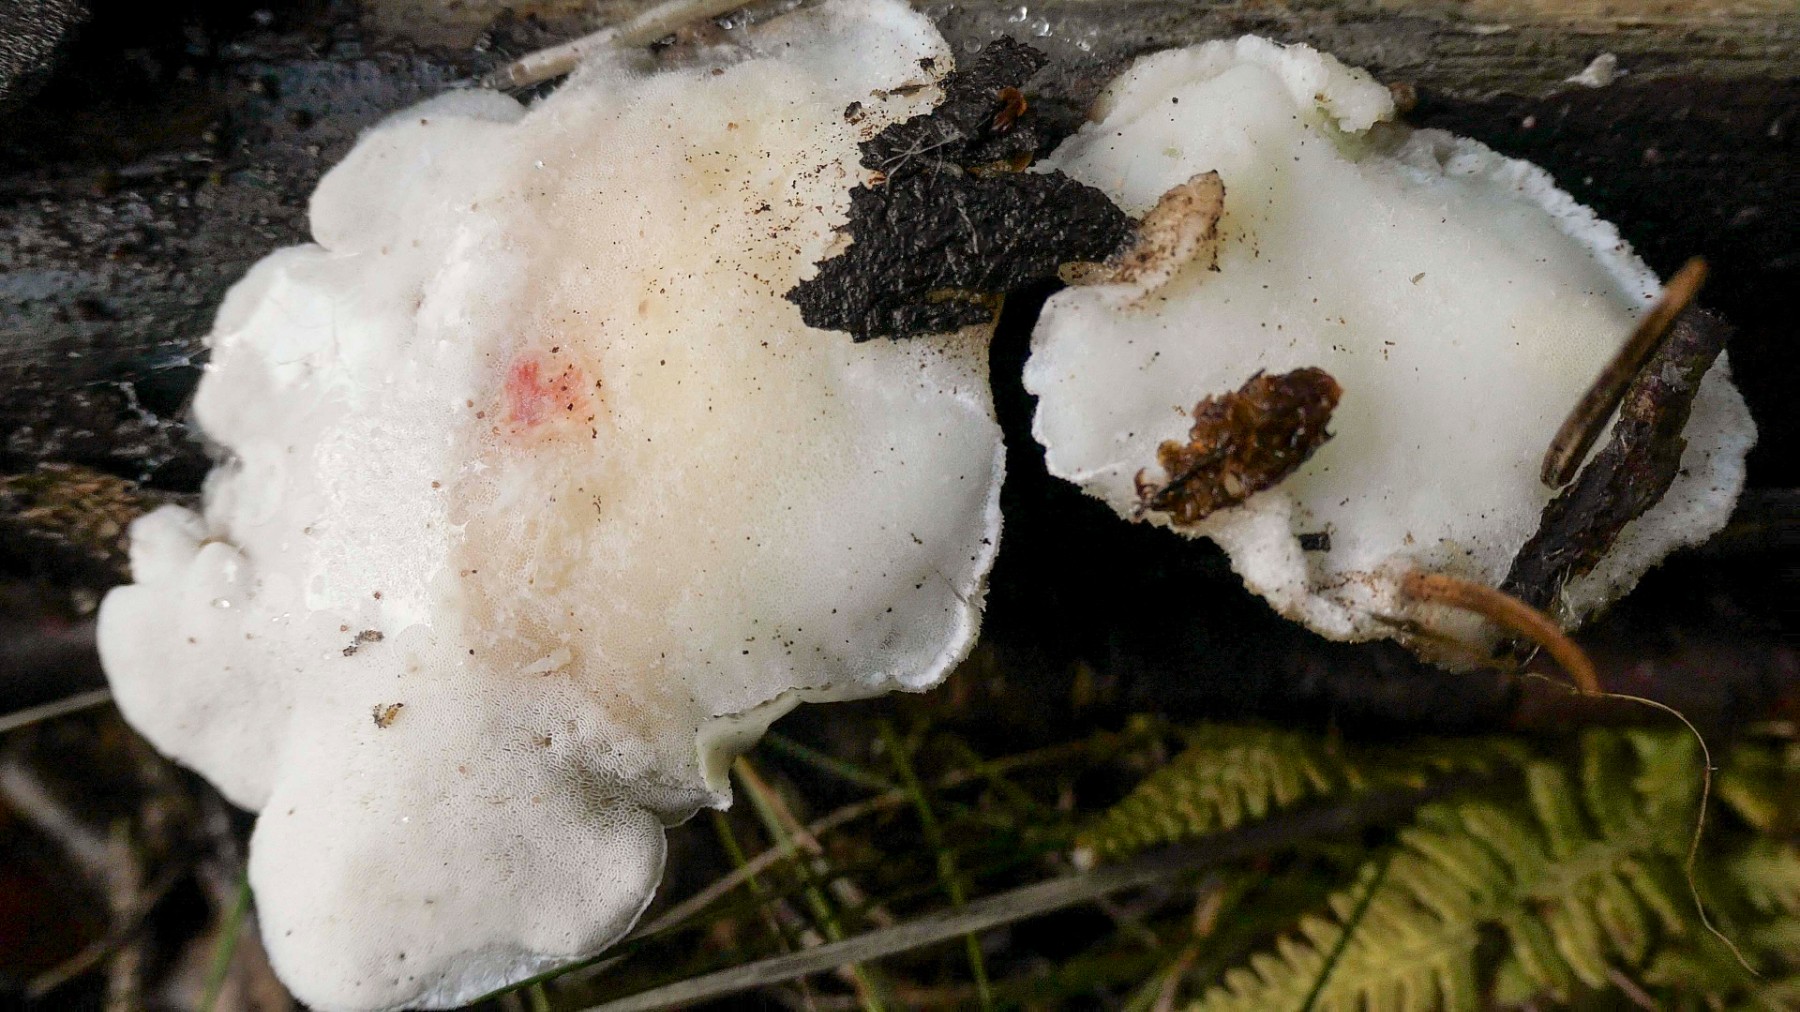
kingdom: Fungi
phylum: Basidiomycota
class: Agaricomycetes
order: Polyporales
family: Incrustoporiaceae
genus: Tyromyces
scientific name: Tyromyces chioneus
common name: stor blødporesvamp
